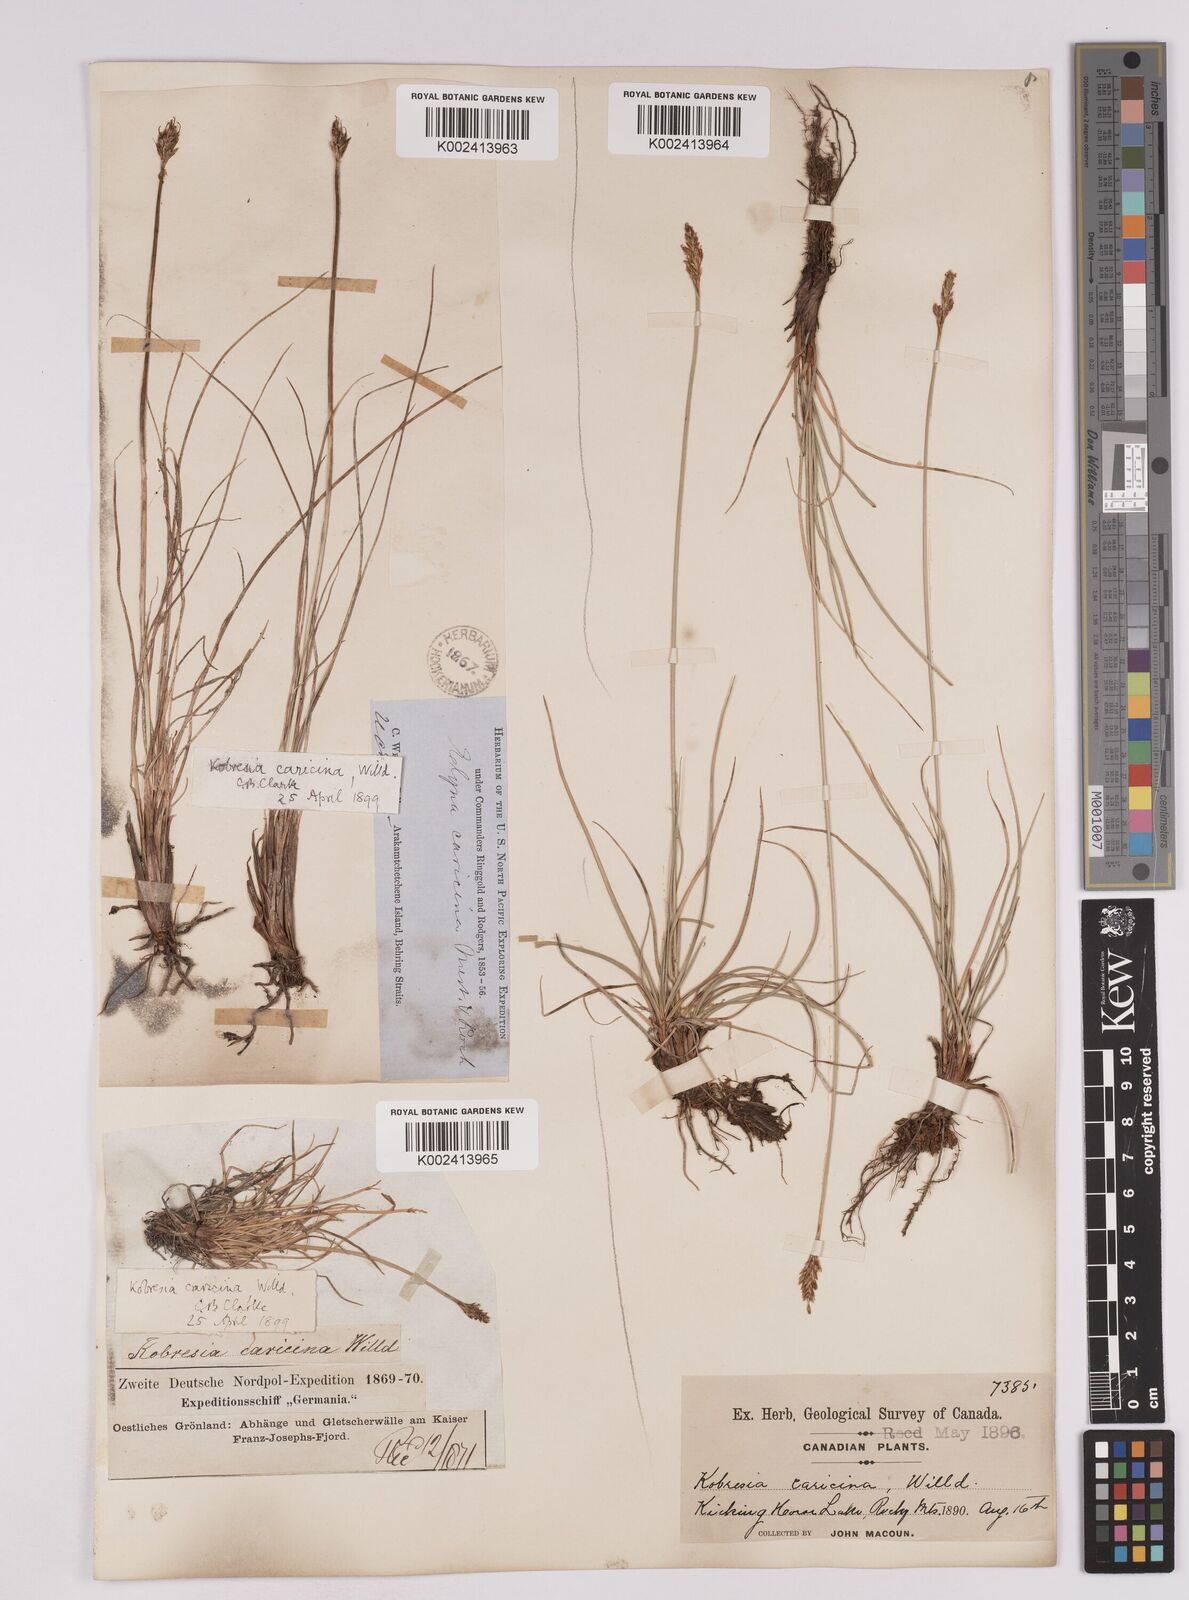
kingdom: Plantae
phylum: Tracheophyta
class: Liliopsida
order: Poales
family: Cyperaceae
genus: Carex
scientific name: Carex simpliciuscula
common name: Simple bog sedge
